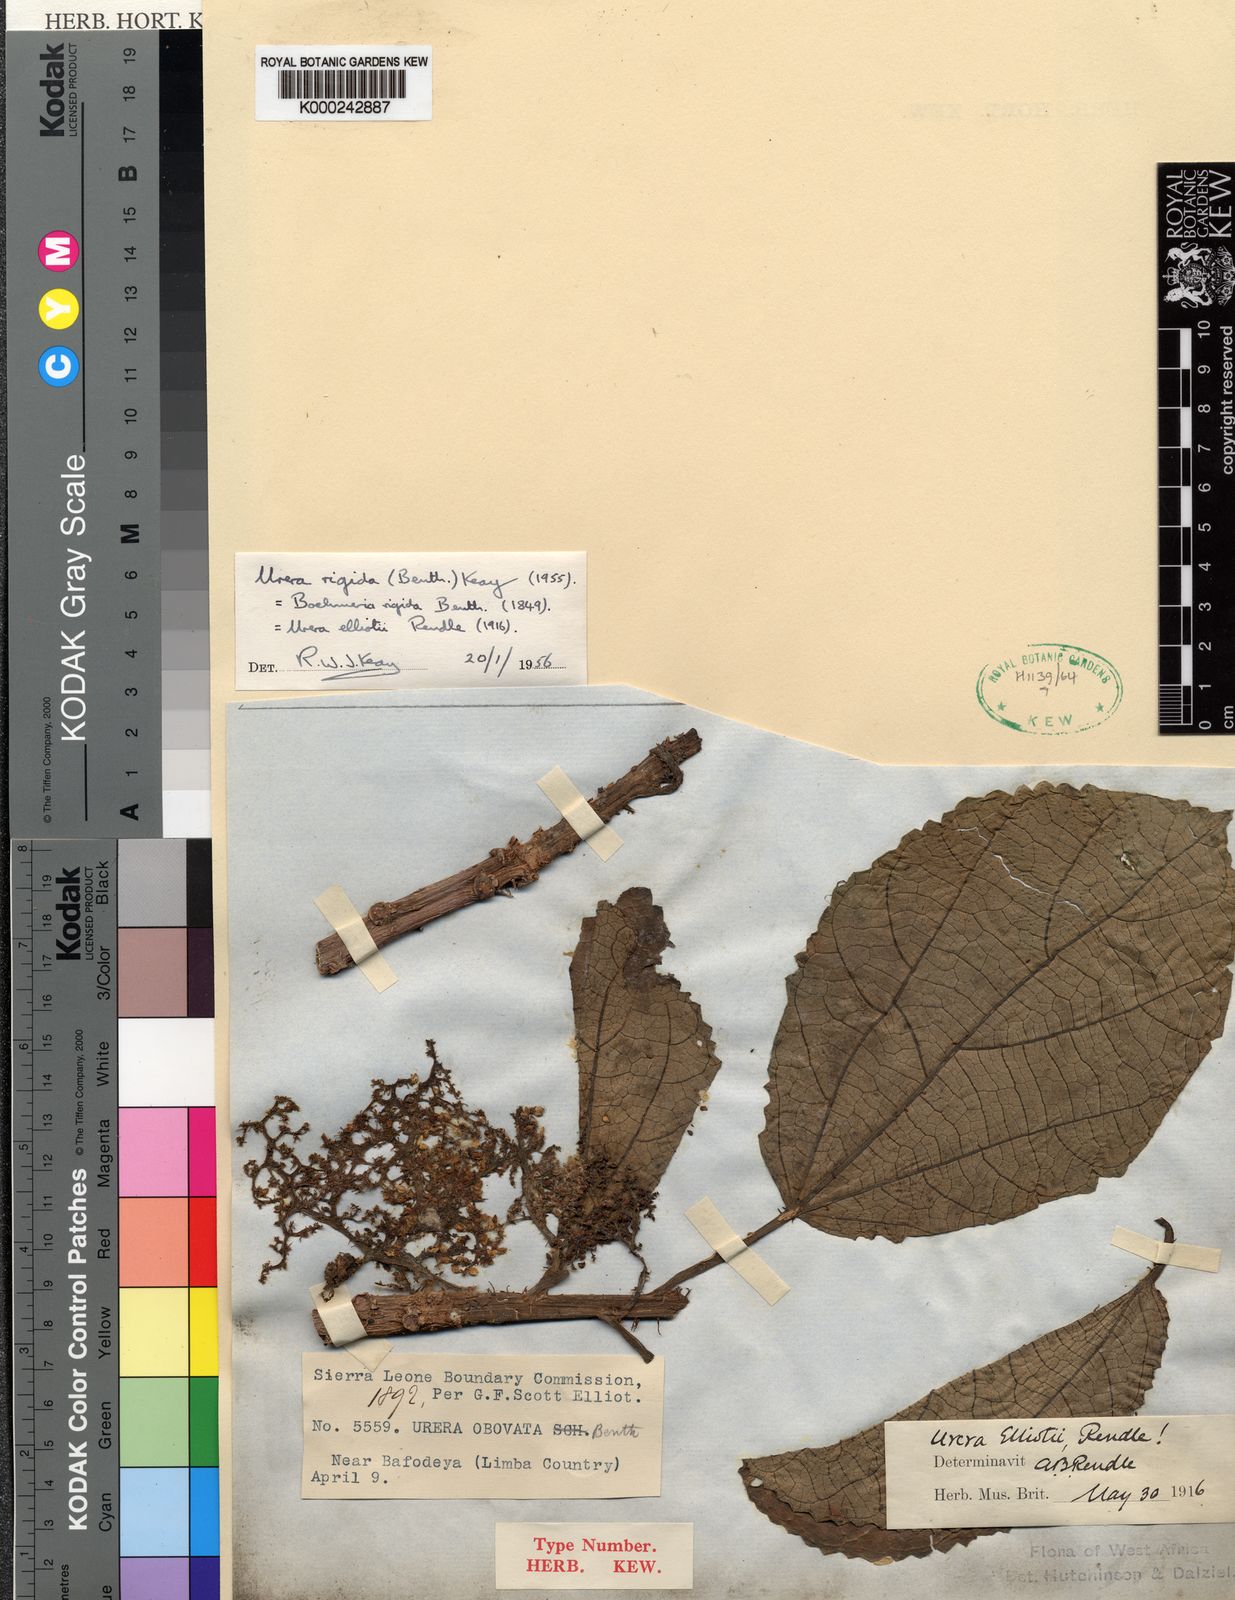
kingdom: Plantae
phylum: Tracheophyta
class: Magnoliopsida
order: Rosales
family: Urticaceae
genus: Scepocarpus
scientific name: Scepocarpus
